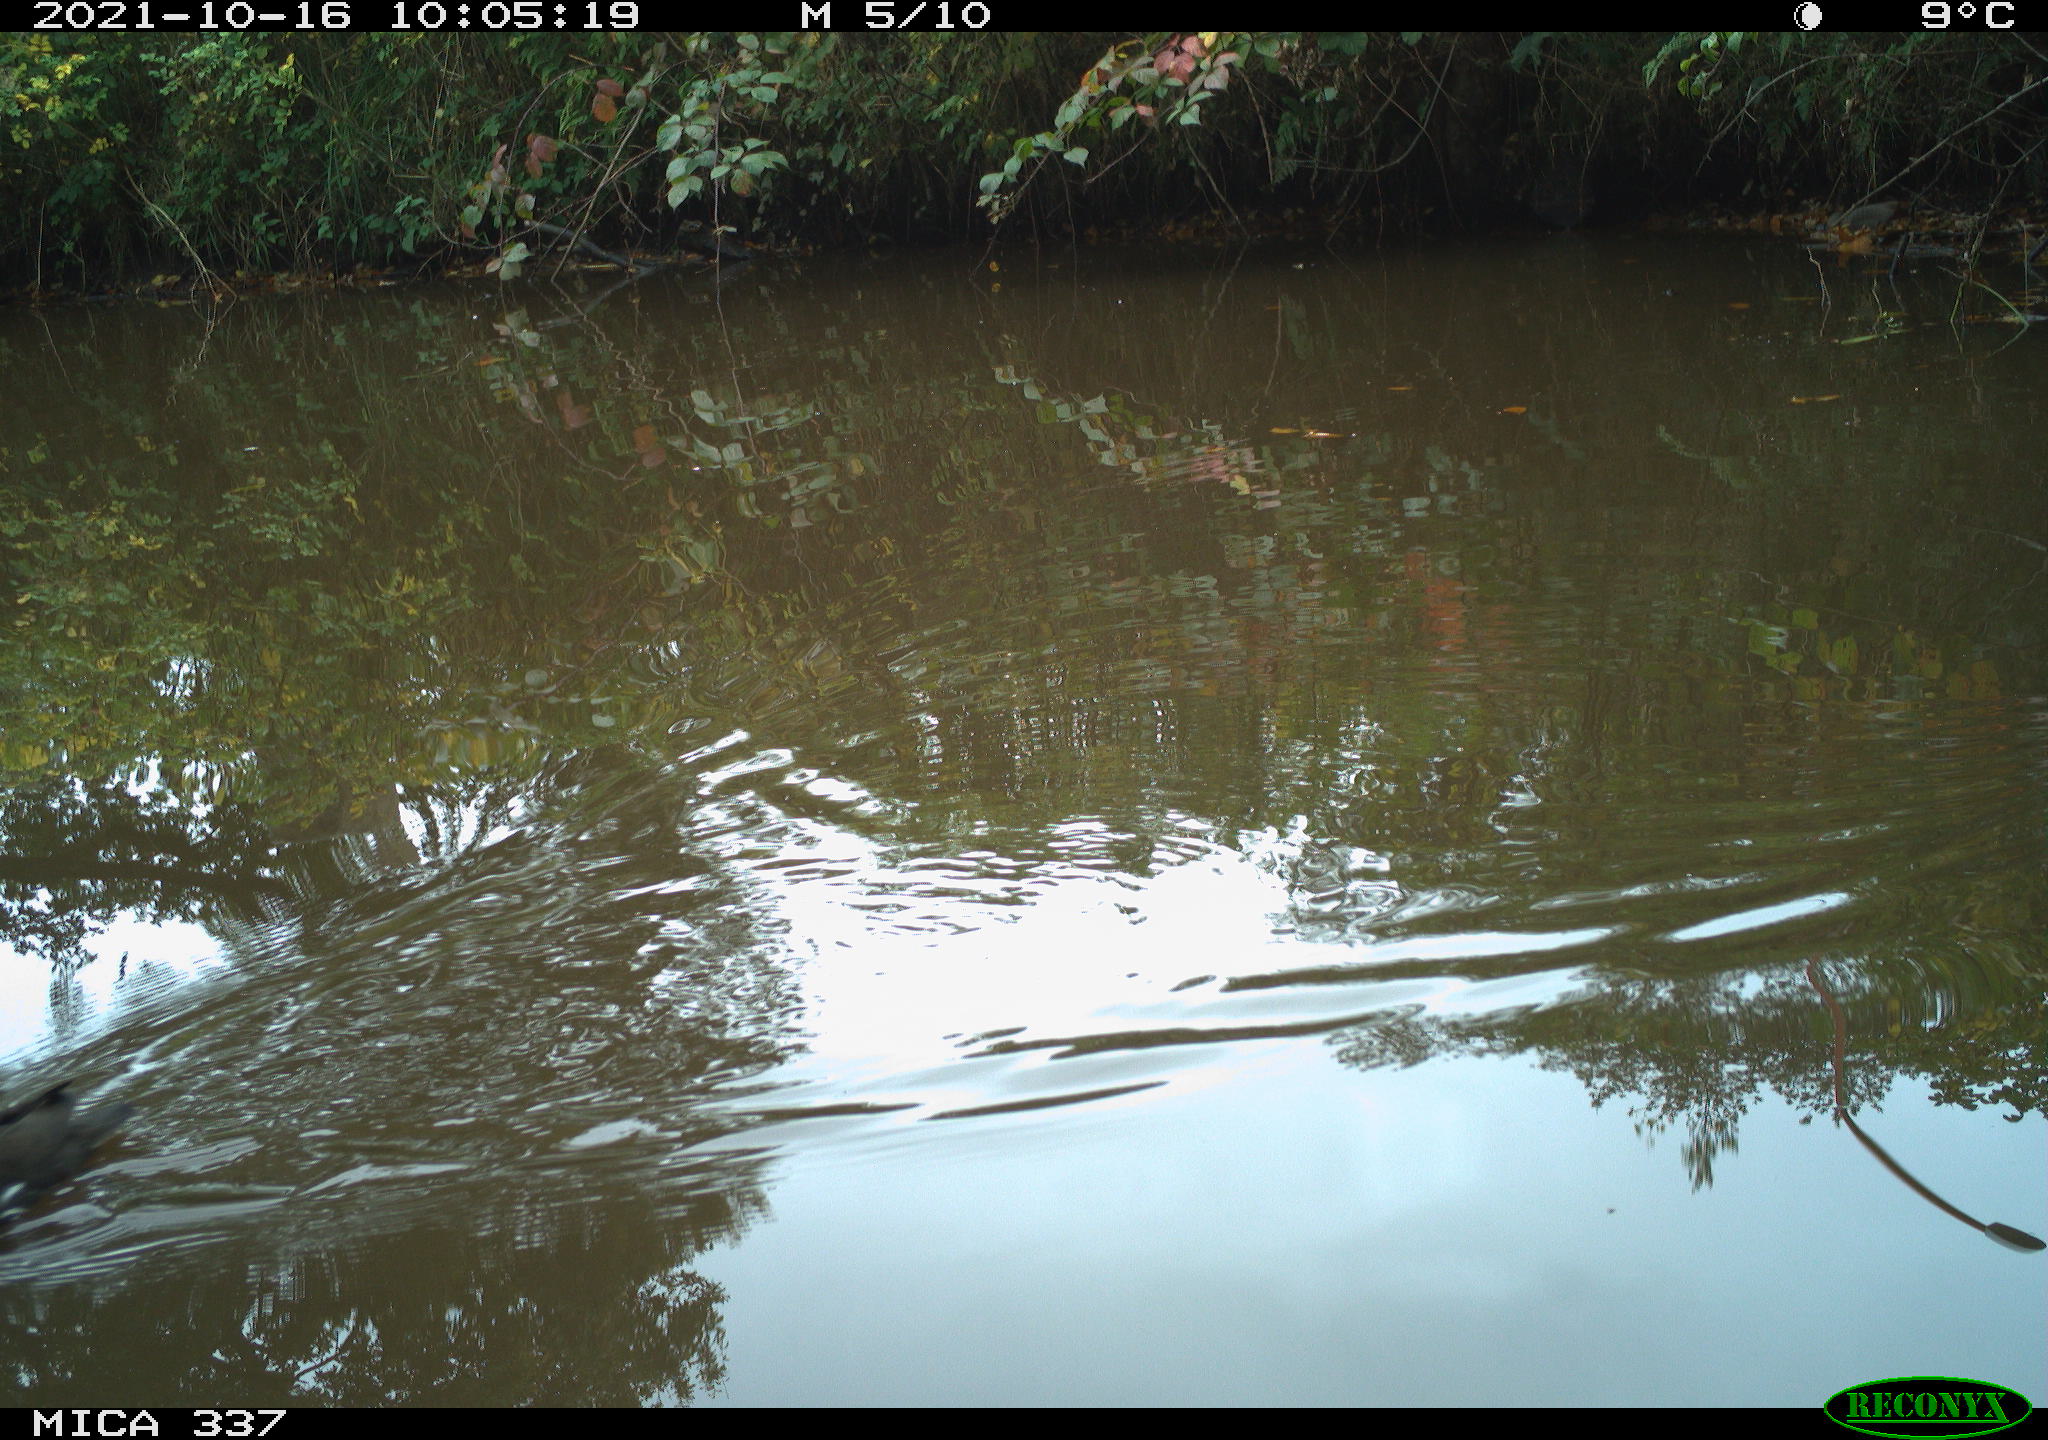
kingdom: Animalia
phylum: Chordata
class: Aves
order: Gruiformes
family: Rallidae
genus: Gallinula
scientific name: Gallinula chloropus
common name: Common moorhen
